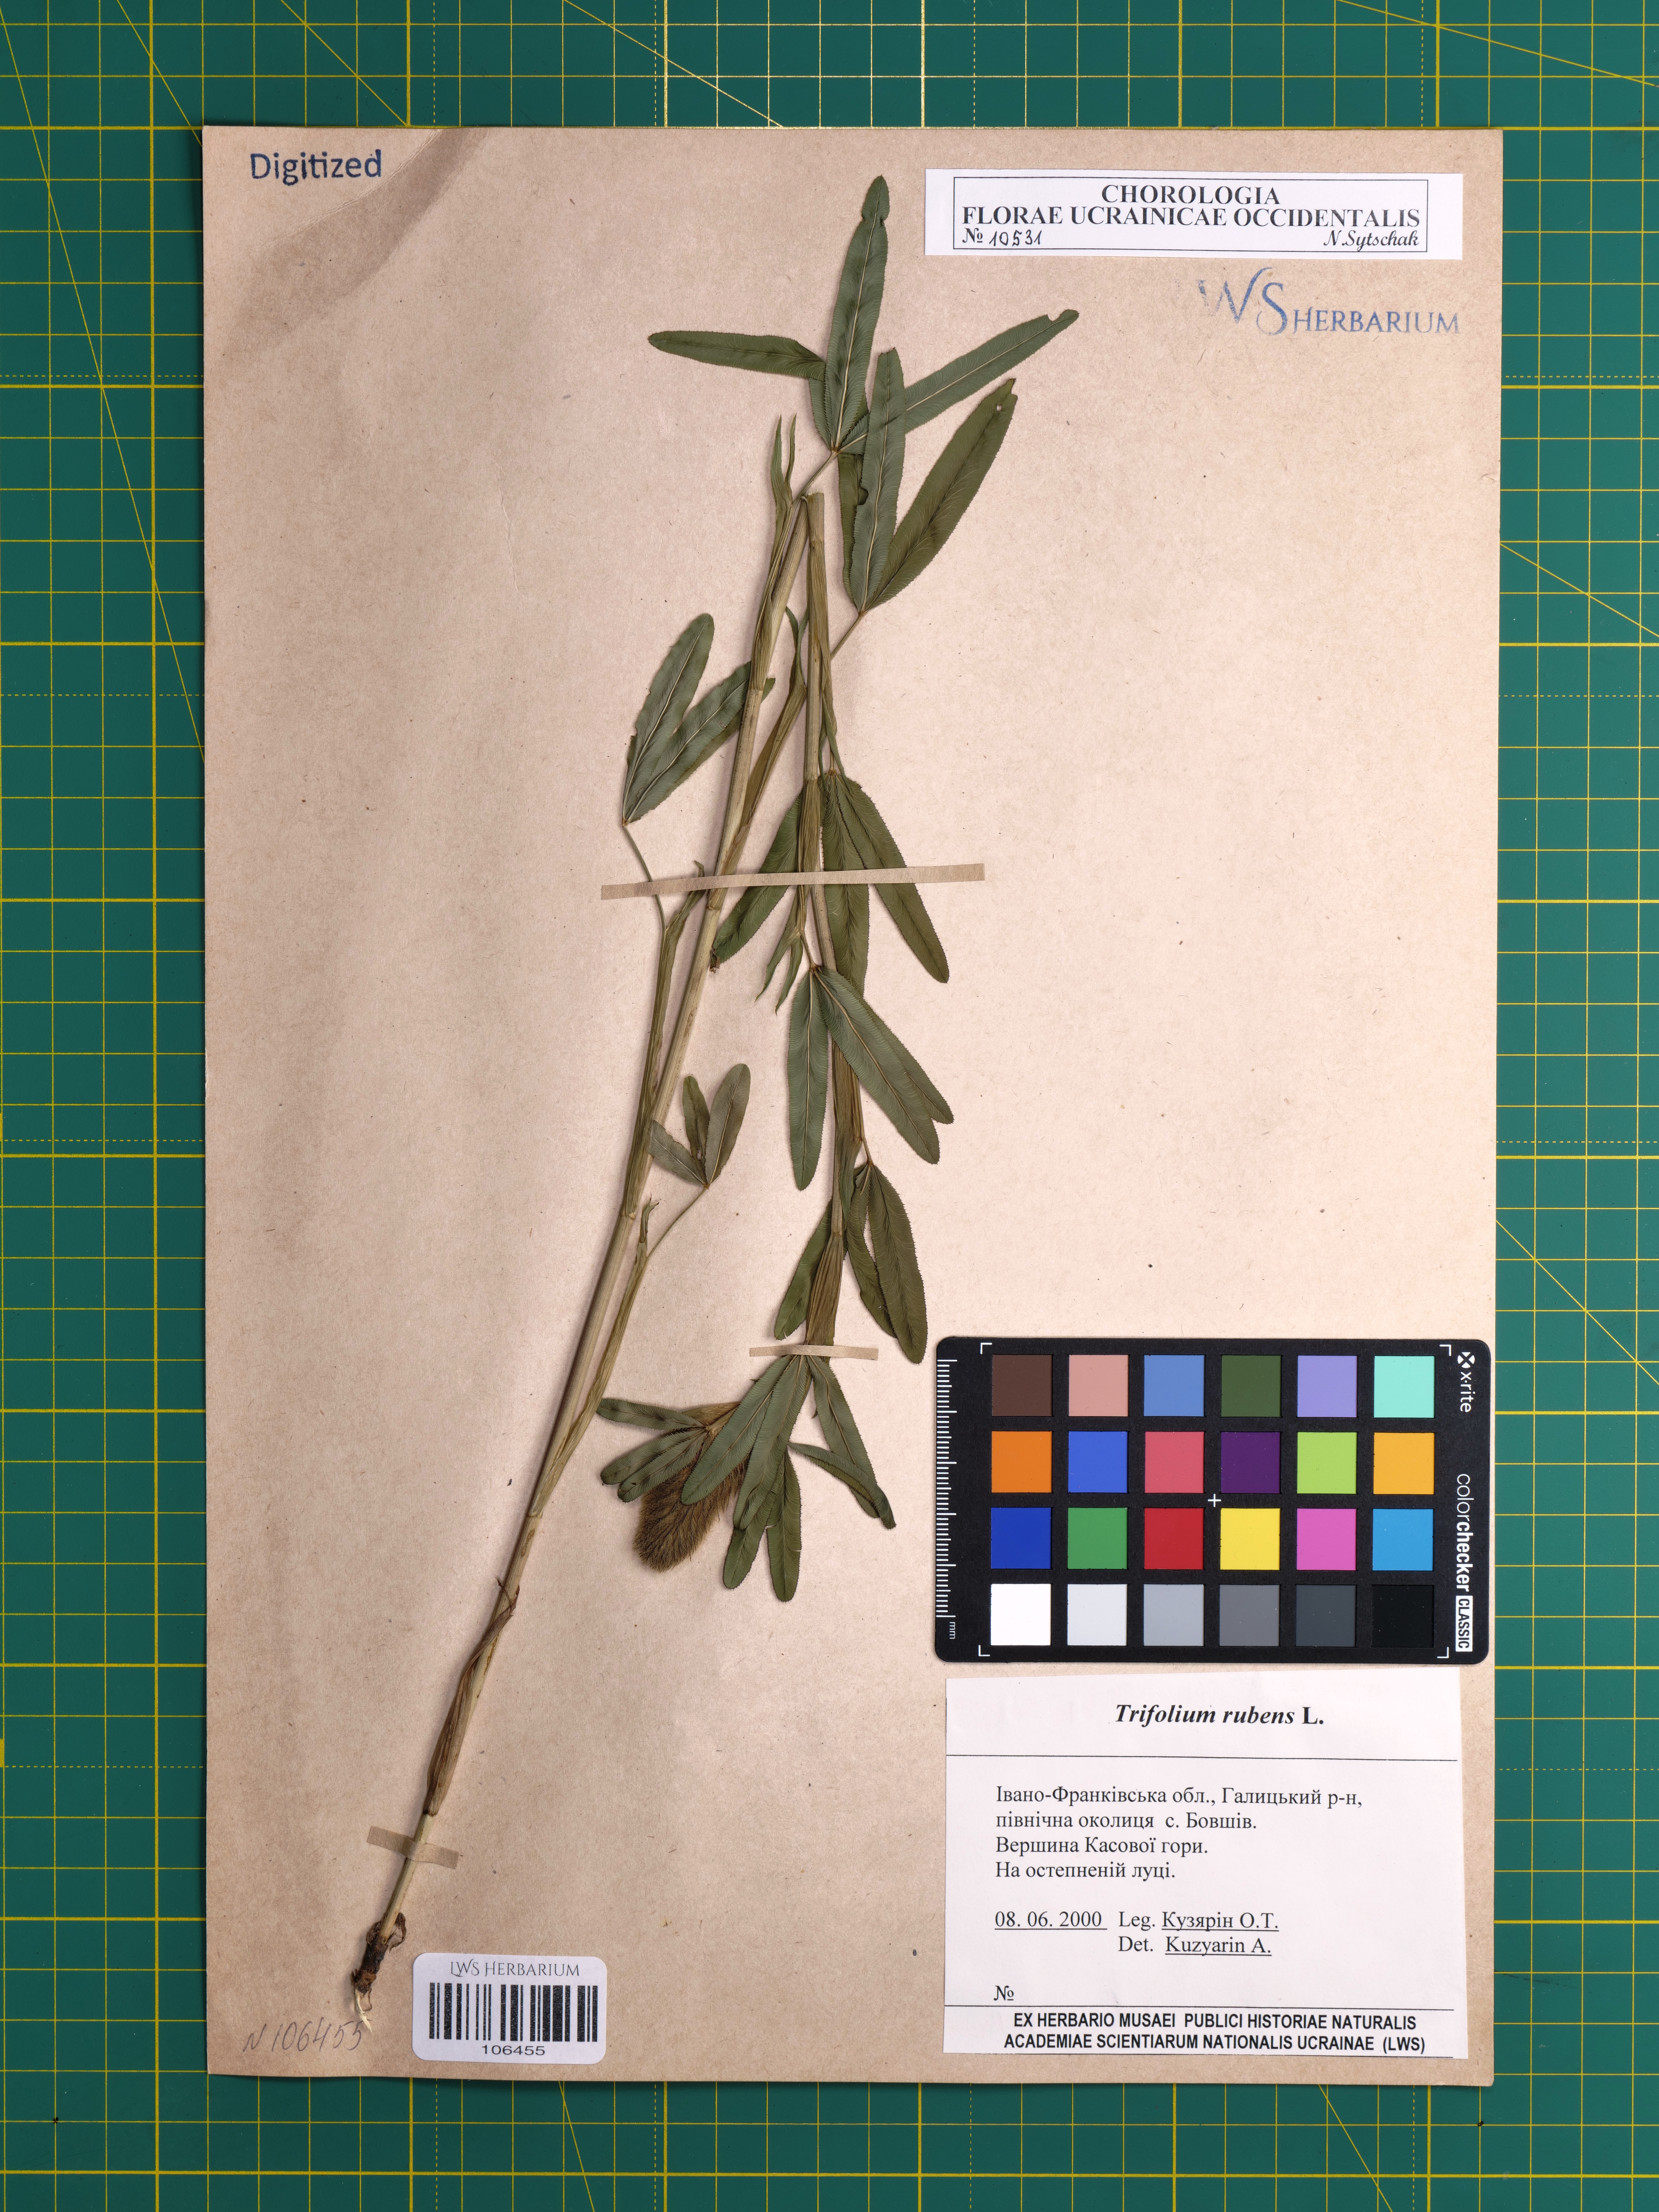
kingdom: Plantae
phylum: Tracheophyta
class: Magnoliopsida
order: Fabales
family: Fabaceae
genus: Trifolium
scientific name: Trifolium rubens
